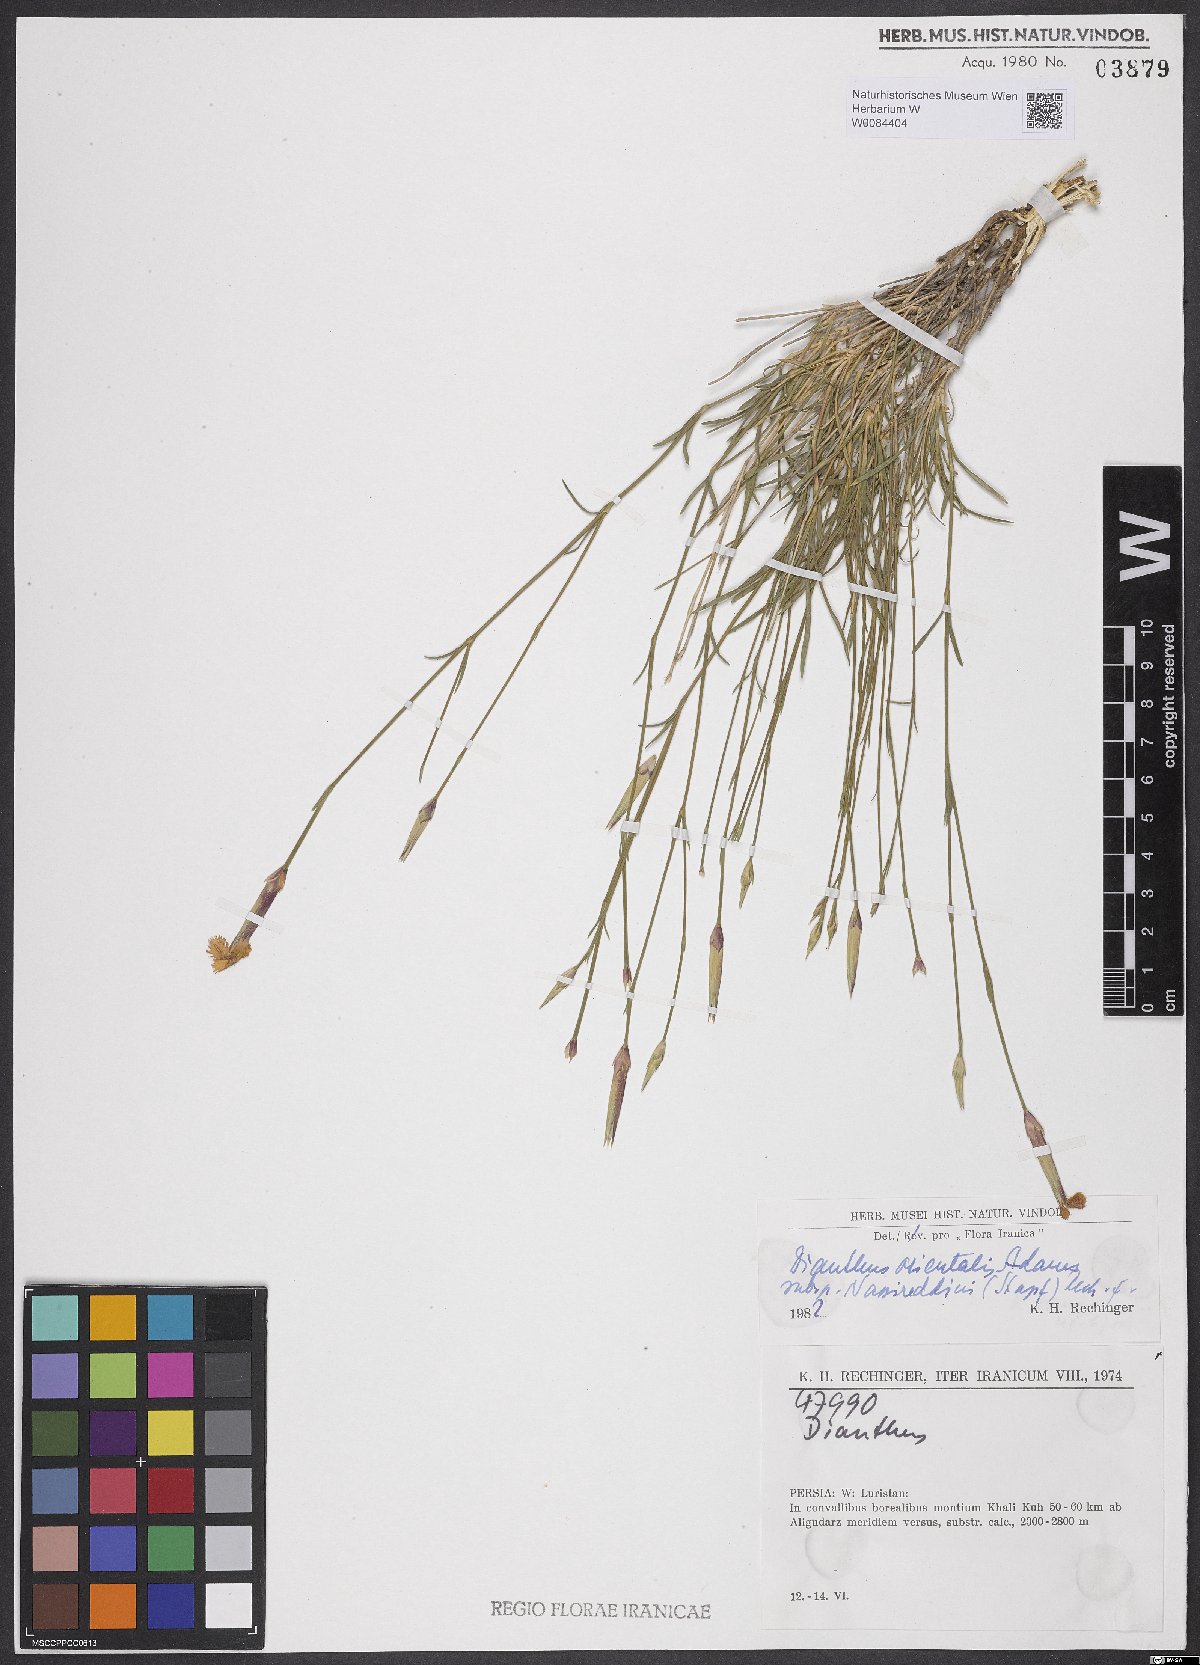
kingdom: Plantae
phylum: Tracheophyta
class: Magnoliopsida
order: Caryophyllales
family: Caryophyllaceae
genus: Dianthus
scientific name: Dianthus orientalis
